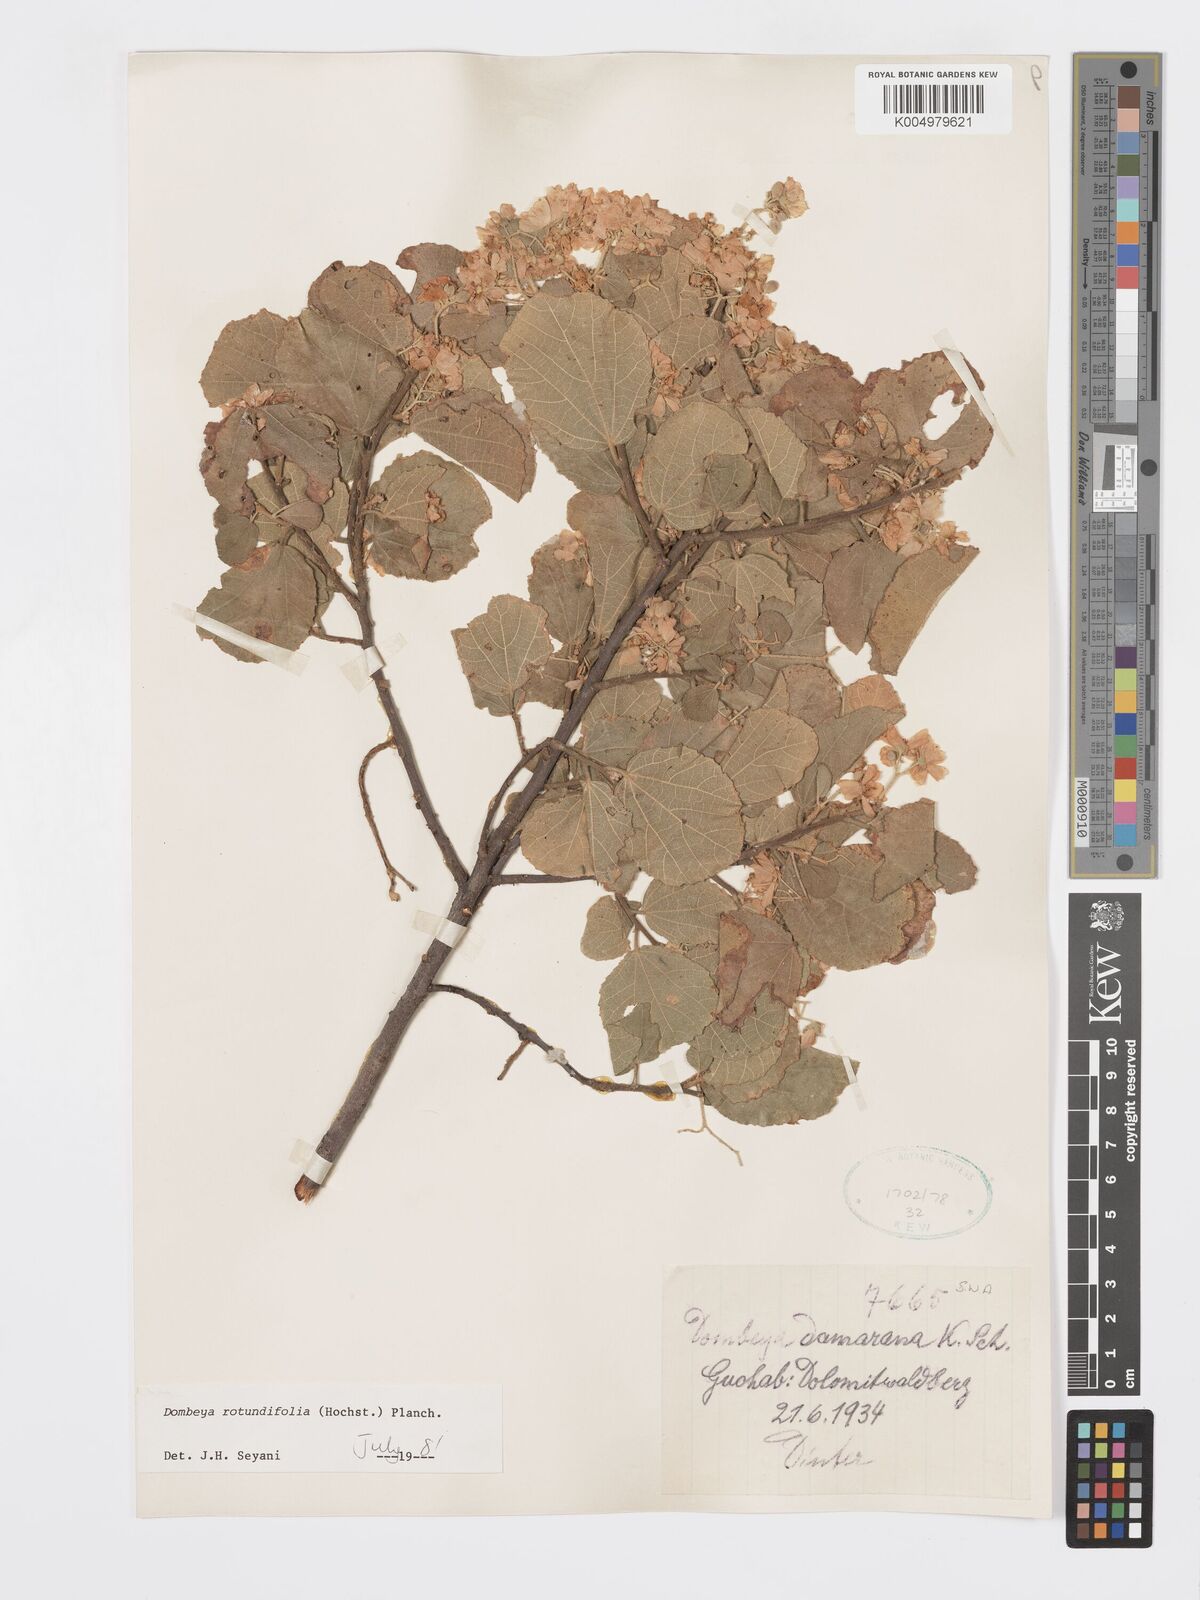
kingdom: Plantae
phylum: Tracheophyta
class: Magnoliopsida
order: Malvales
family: Malvaceae
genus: Dombeya
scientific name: Dombeya rotundifolia
